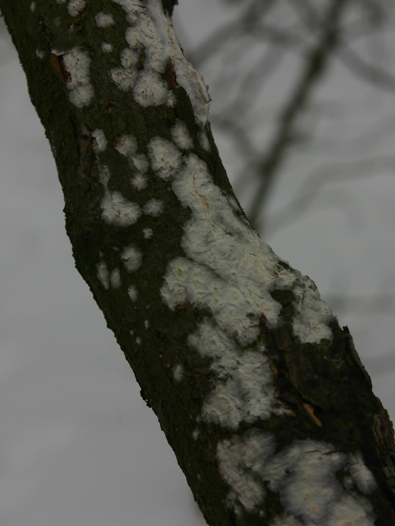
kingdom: Fungi
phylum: Basidiomycota
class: Agaricomycetes
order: Russulales
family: Stereaceae
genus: Gloeocystidiellum
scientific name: Gloeocystidiellum porosum
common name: mælkehvid olieskind
